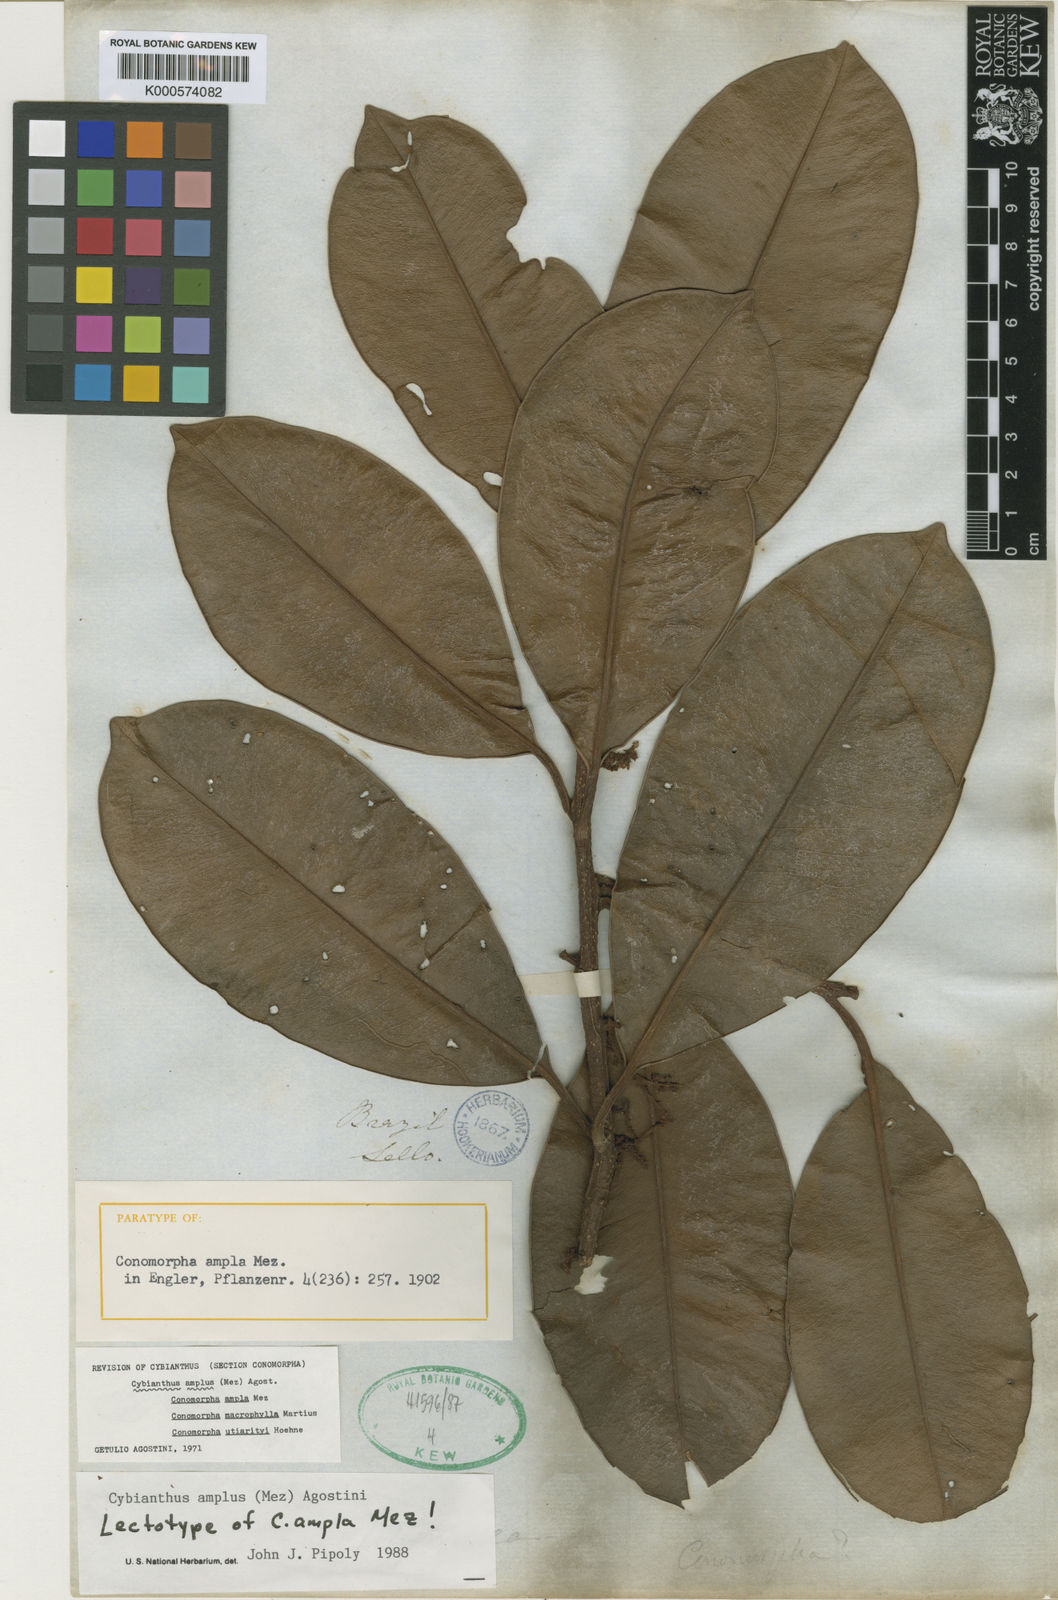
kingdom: Plantae
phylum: Tracheophyta
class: Magnoliopsida
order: Ericales
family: Primulaceae
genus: Cybianthus
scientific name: Cybianthus amplus
